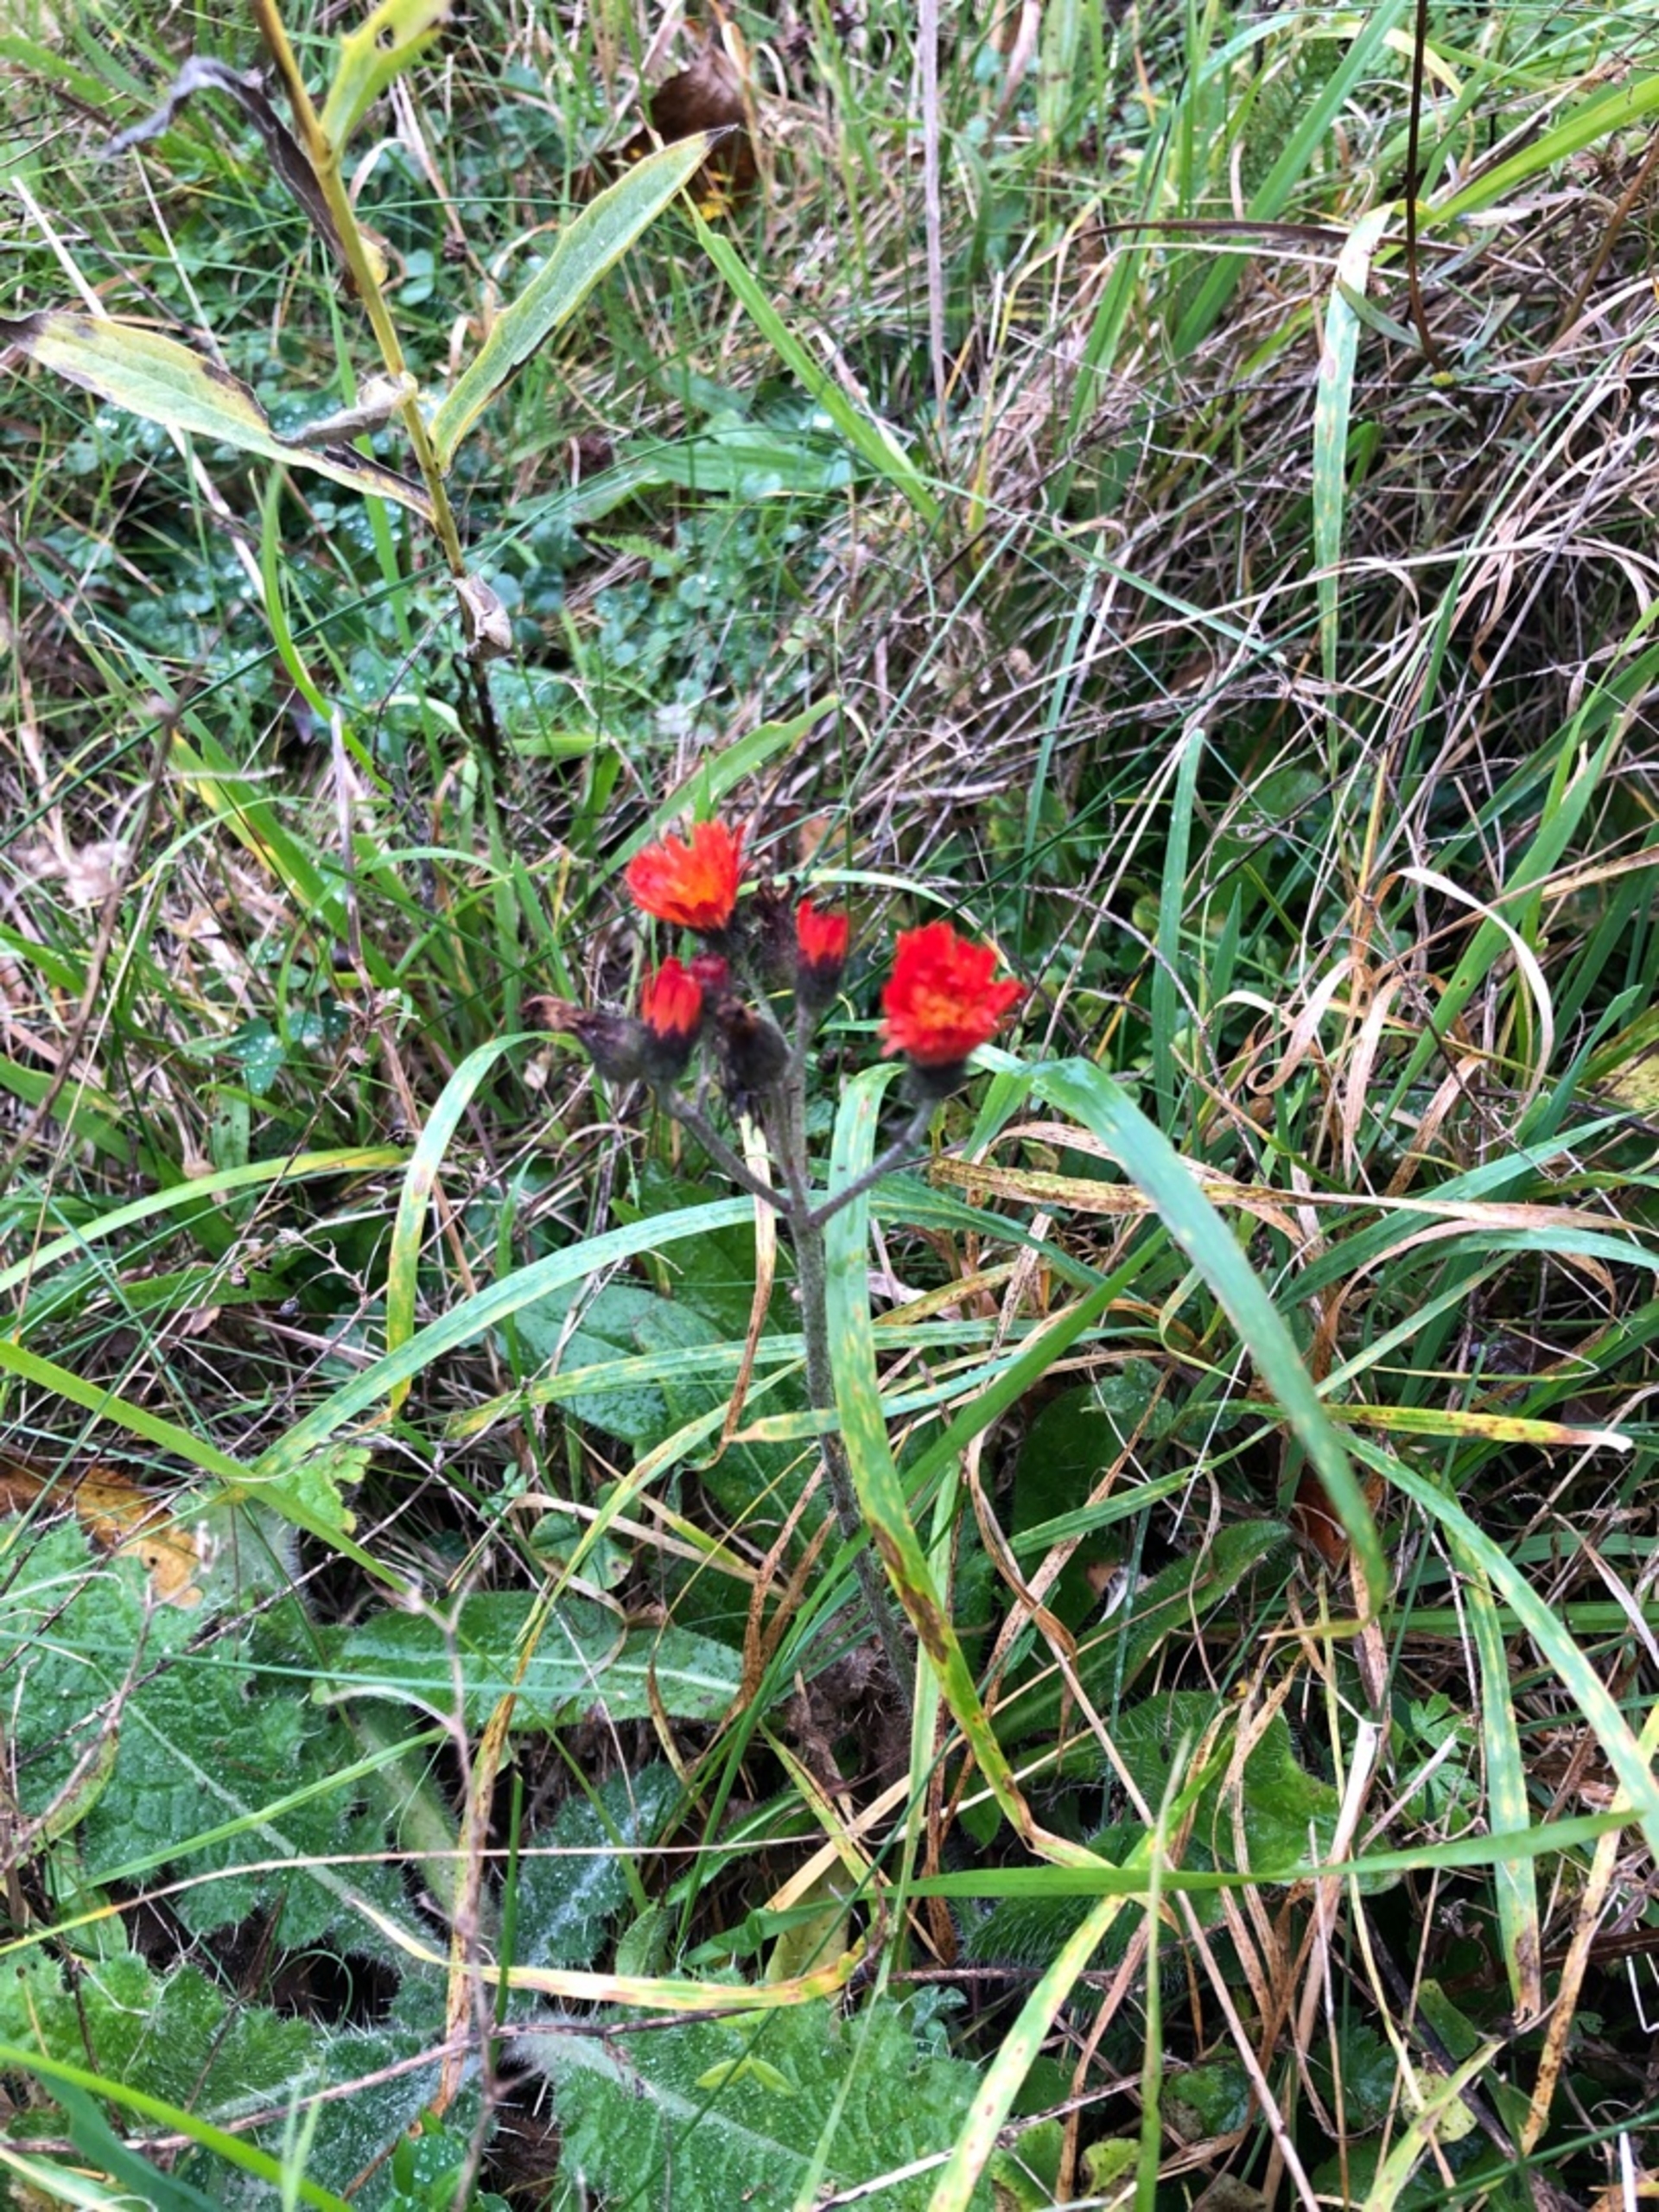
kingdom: Plantae
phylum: Tracheophyta
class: Magnoliopsida
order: Asterales
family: Asteraceae
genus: Pilosella
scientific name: Pilosella aurantiaca
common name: Pomerans-høgeurt (underart)
